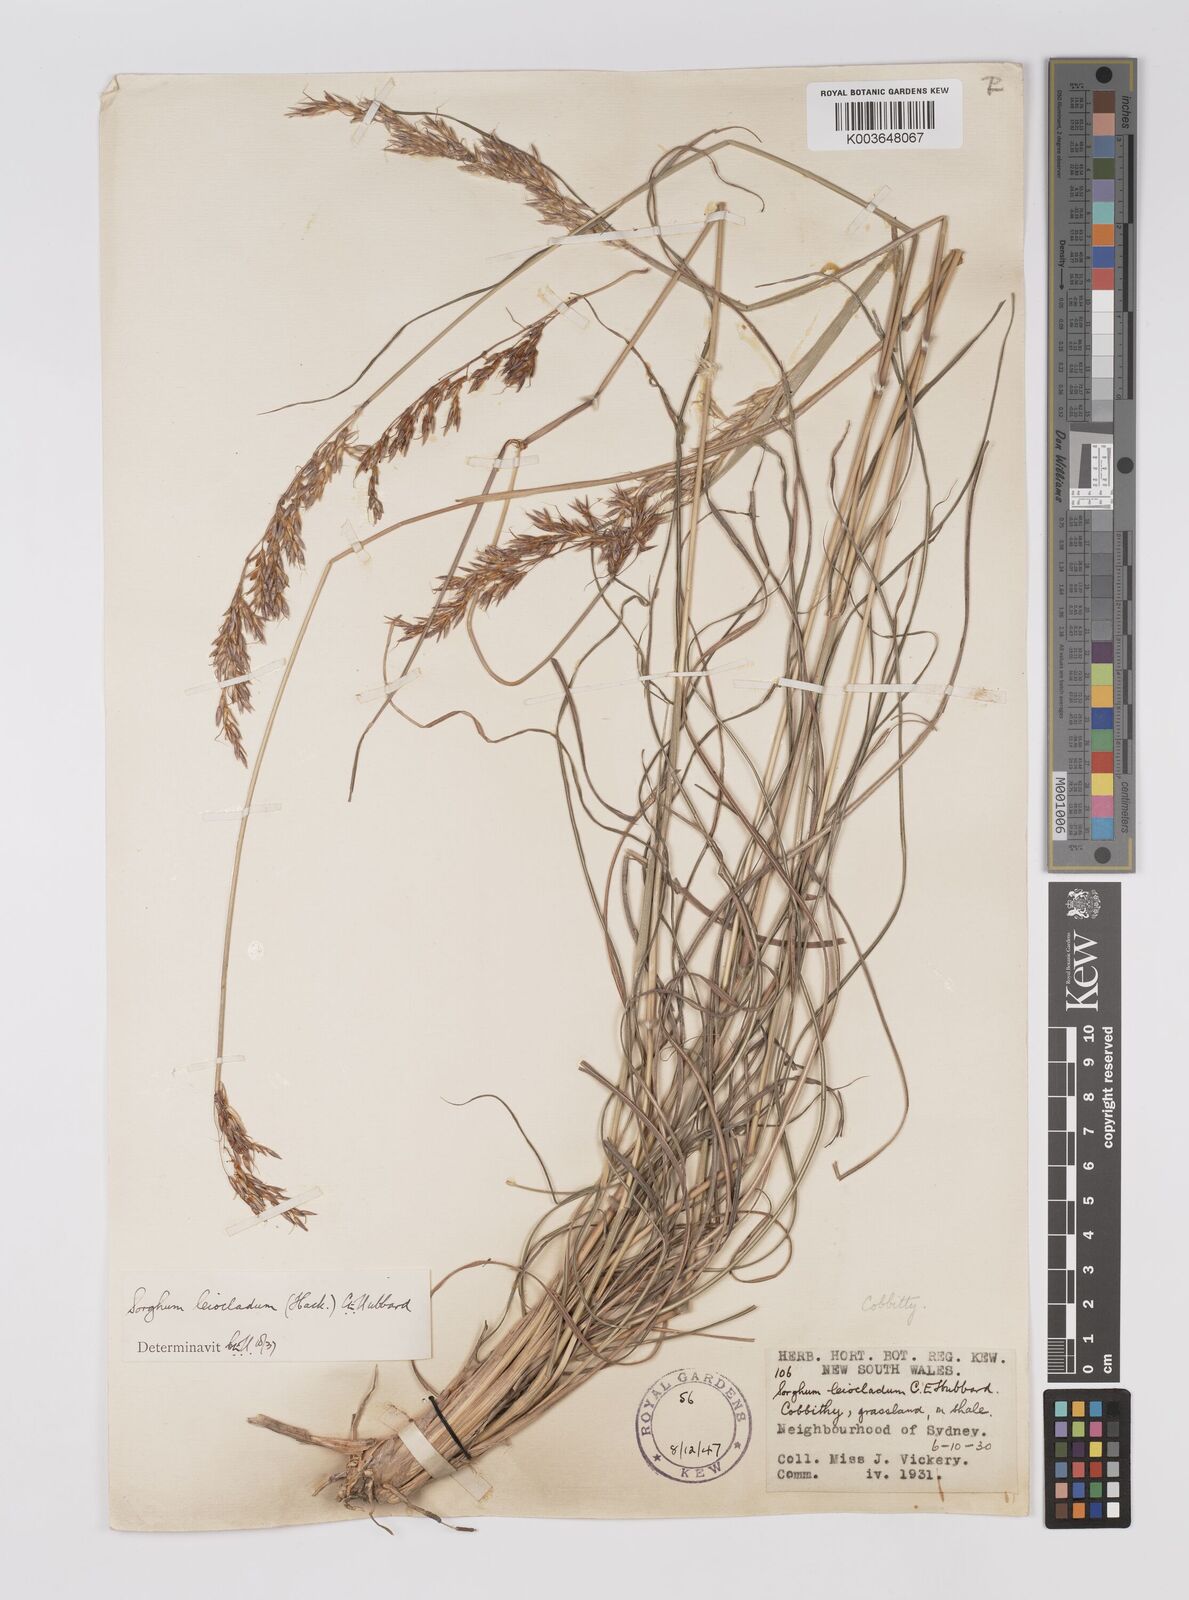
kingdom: Plantae
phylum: Tracheophyta
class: Liliopsida
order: Poales
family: Poaceae
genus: Sarga
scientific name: Sarga leioclada
